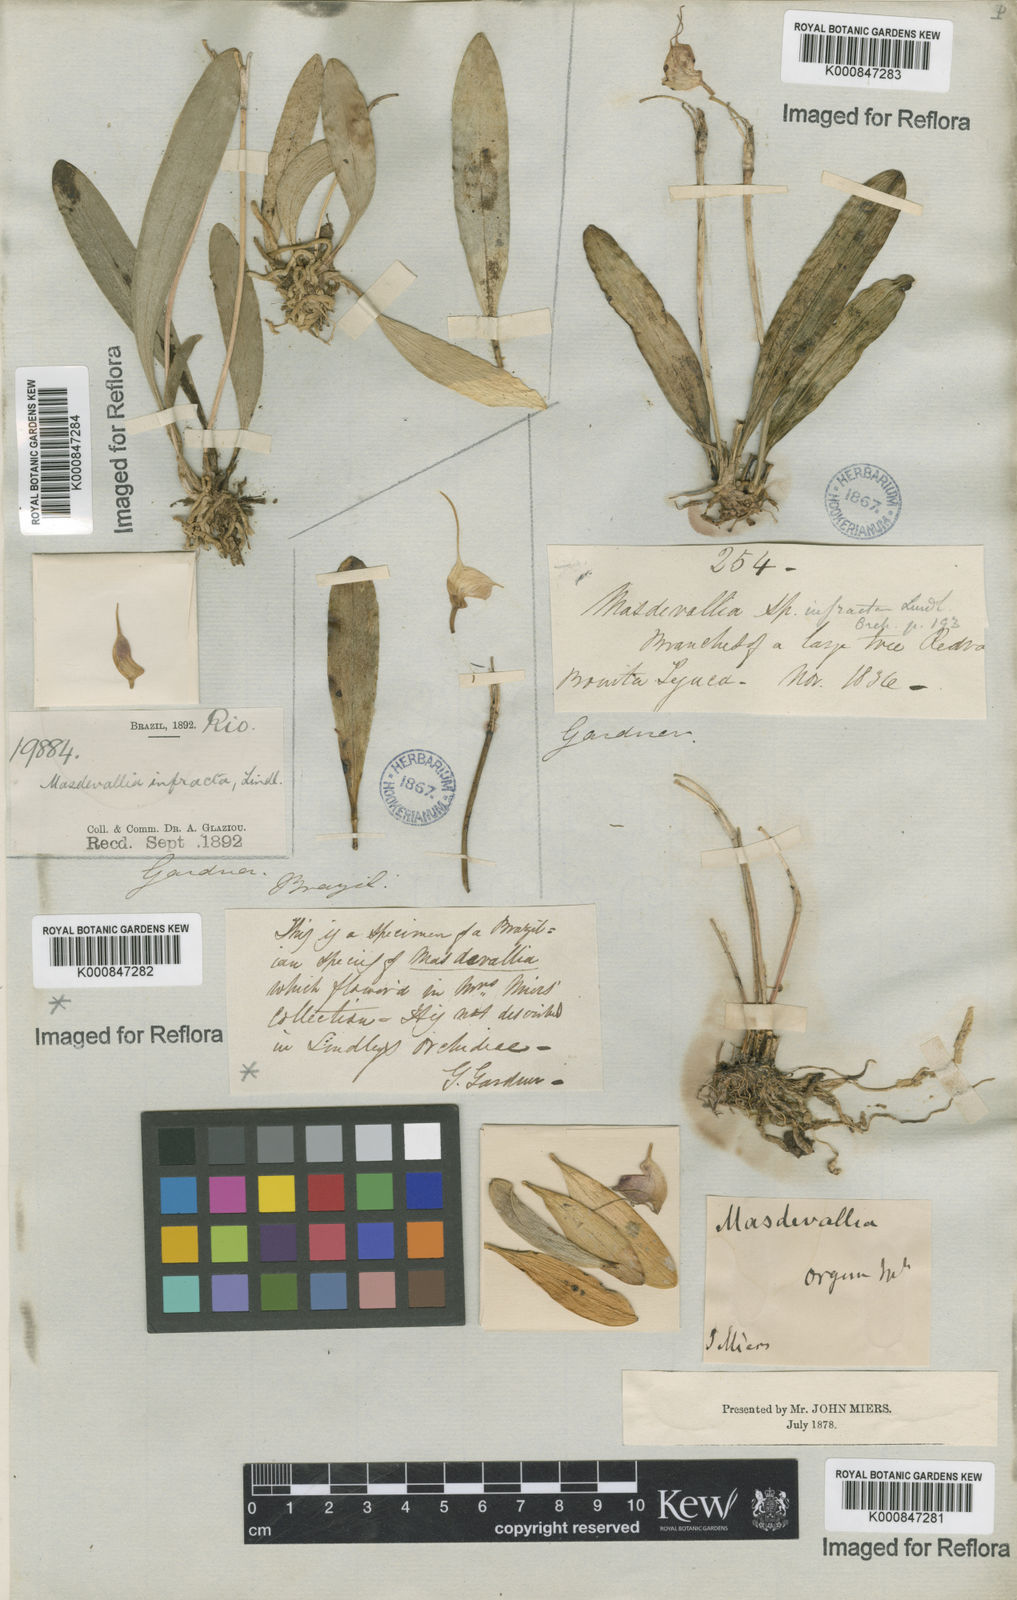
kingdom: Plantae
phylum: Tracheophyta
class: Liliopsida
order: Asparagales
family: Orchidaceae
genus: Masdevallia
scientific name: Masdevallia infracta
